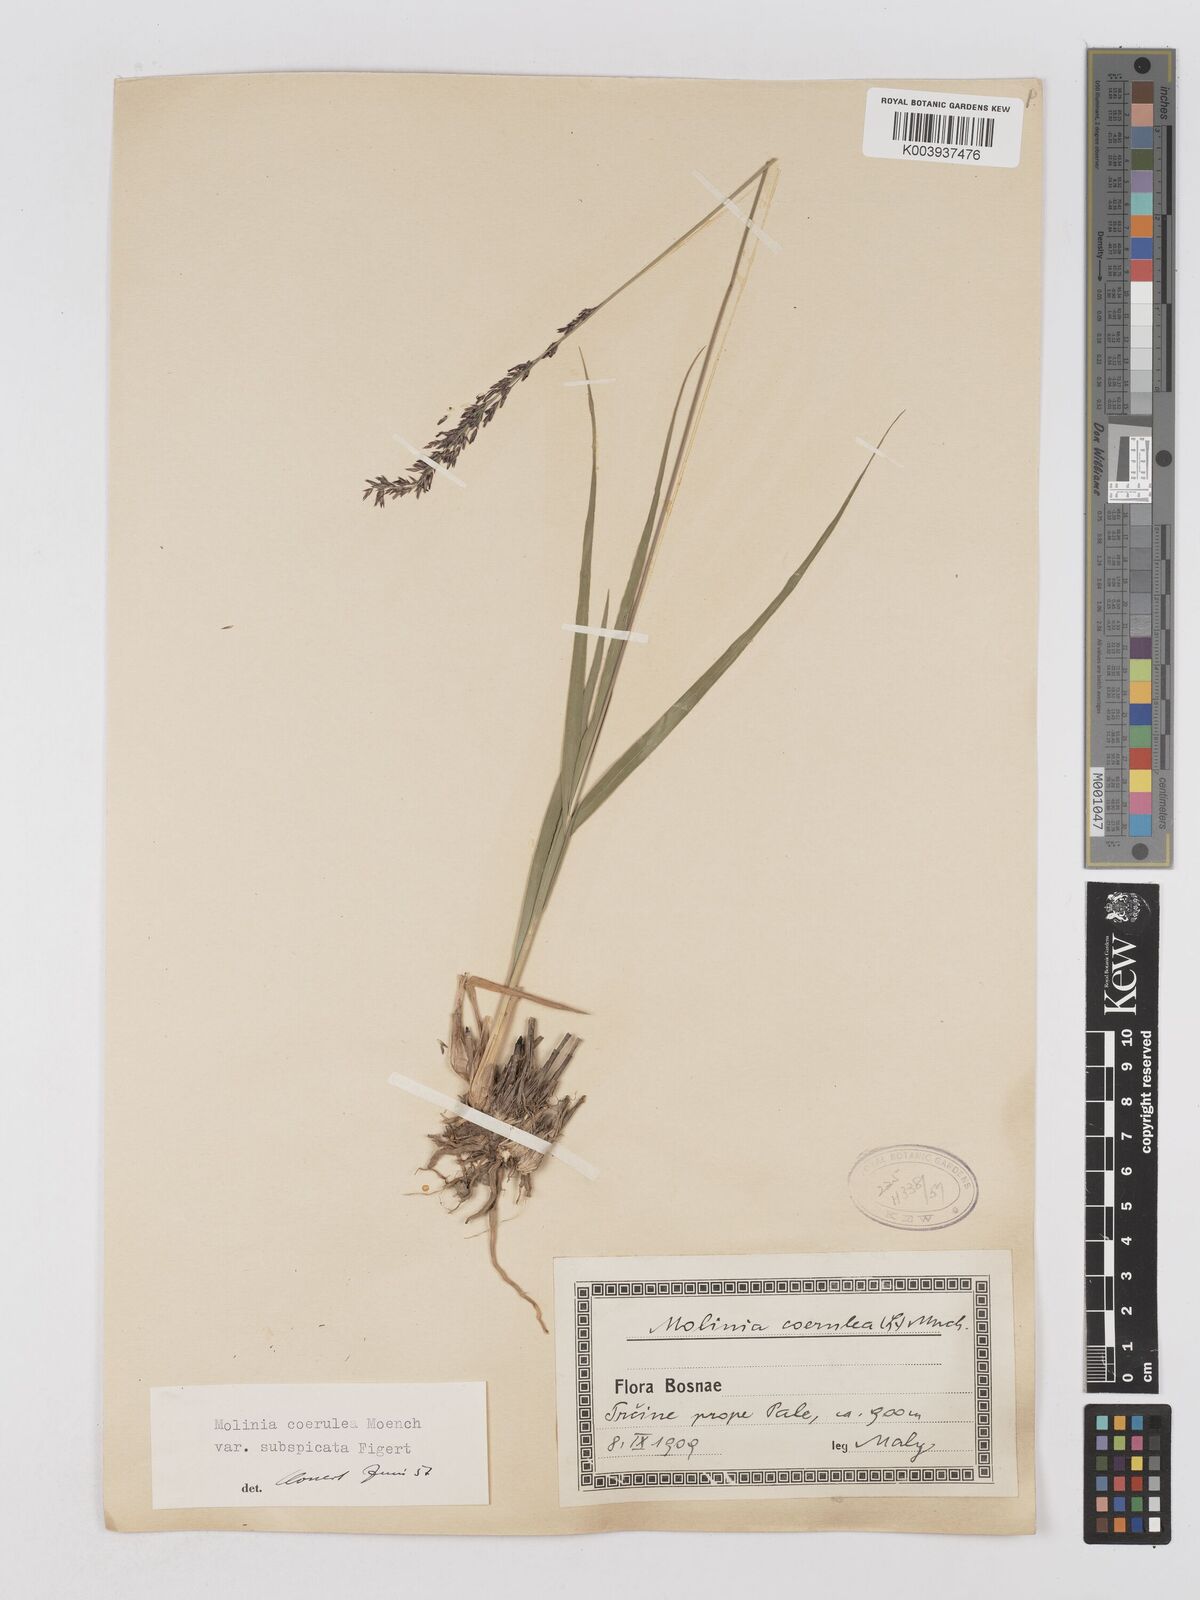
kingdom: Plantae
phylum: Tracheophyta
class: Liliopsida
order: Poales
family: Poaceae
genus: Molinia
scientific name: Molinia caerulea
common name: Purple moor-grass
